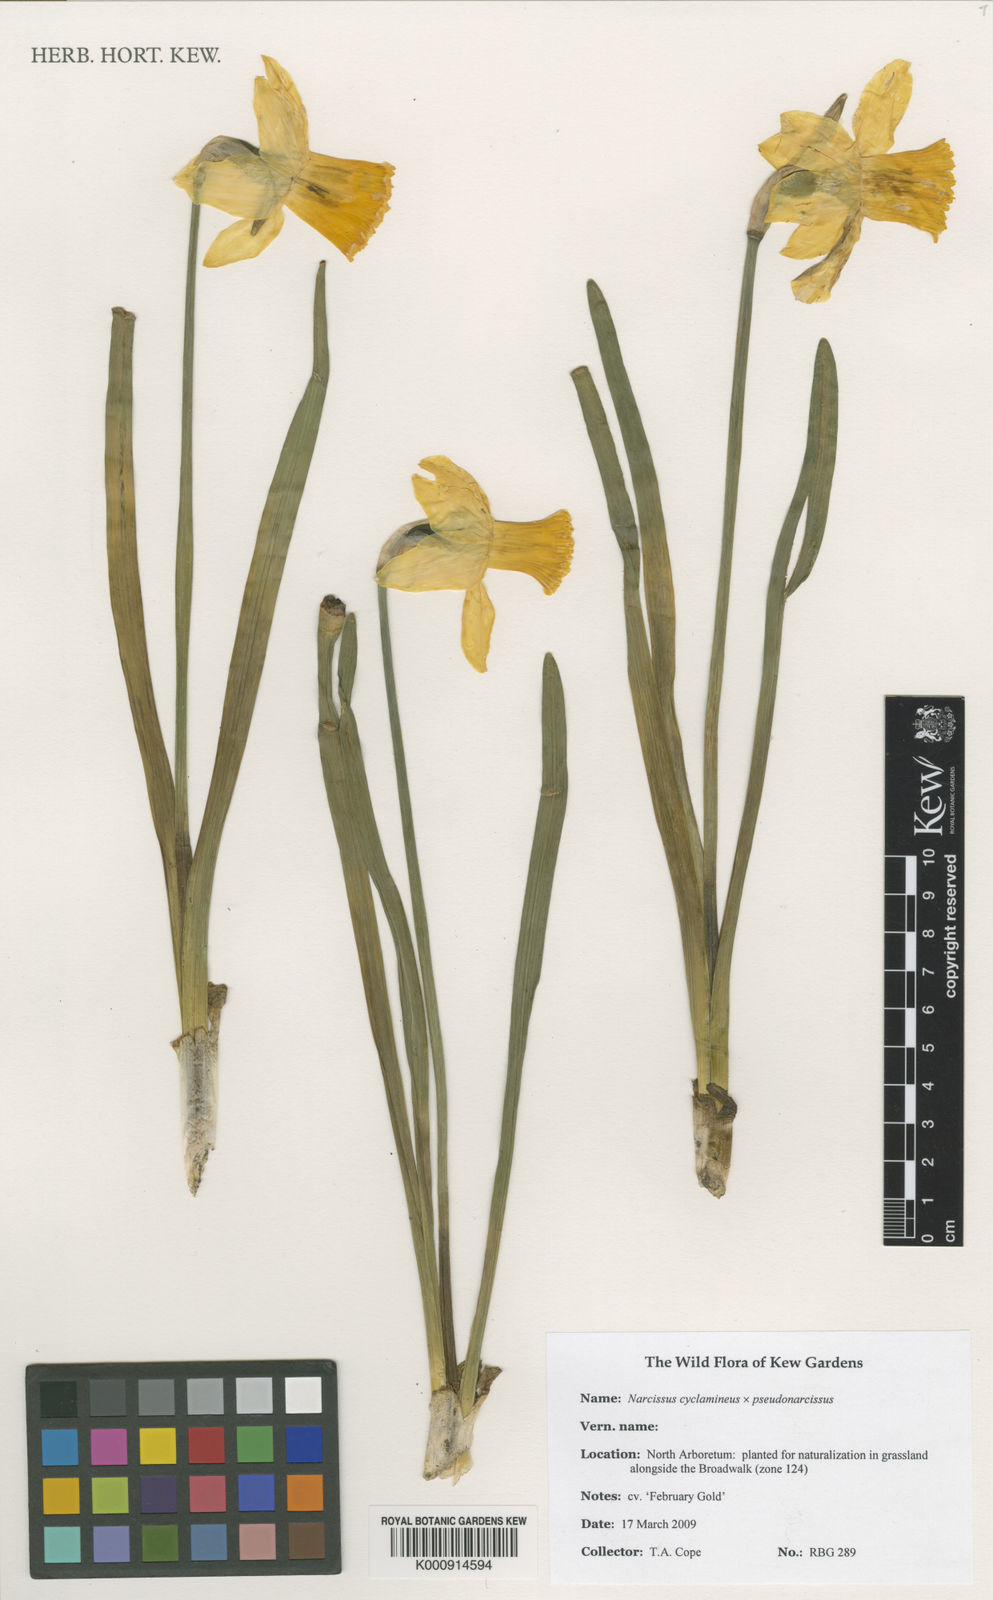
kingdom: Plantae
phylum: Tracheophyta
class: Liliopsida
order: Asparagales
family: Amaryllidaceae
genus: Narcissus
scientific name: Narcissus cyclamineus
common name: Cyclamen-flowered daffodil
